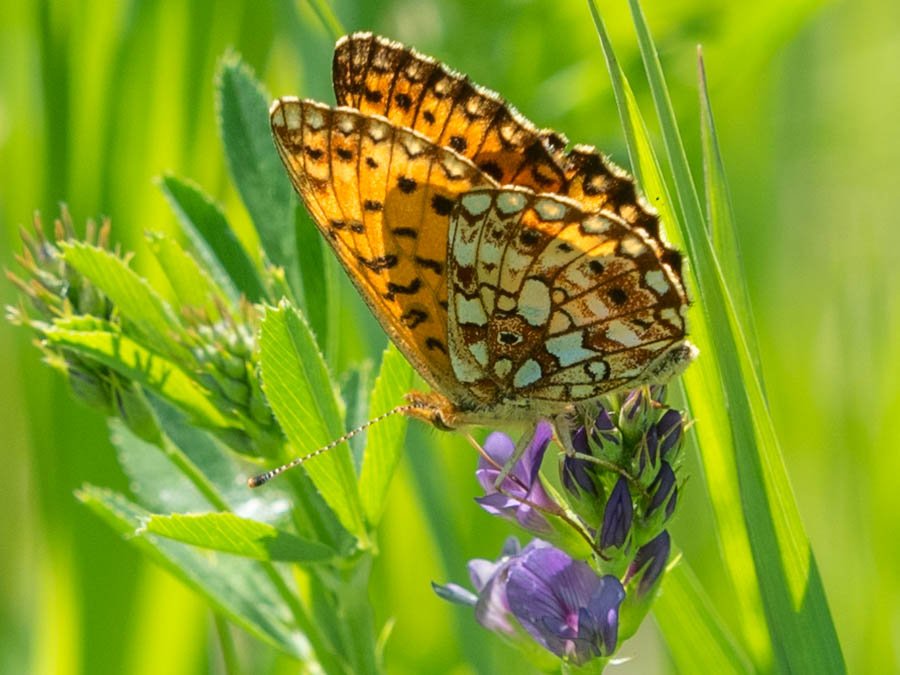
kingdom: Animalia
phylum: Arthropoda
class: Insecta
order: Lepidoptera
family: Nymphalidae
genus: Boloria
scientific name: Boloria selene
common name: Silver-bordered Fritillary
